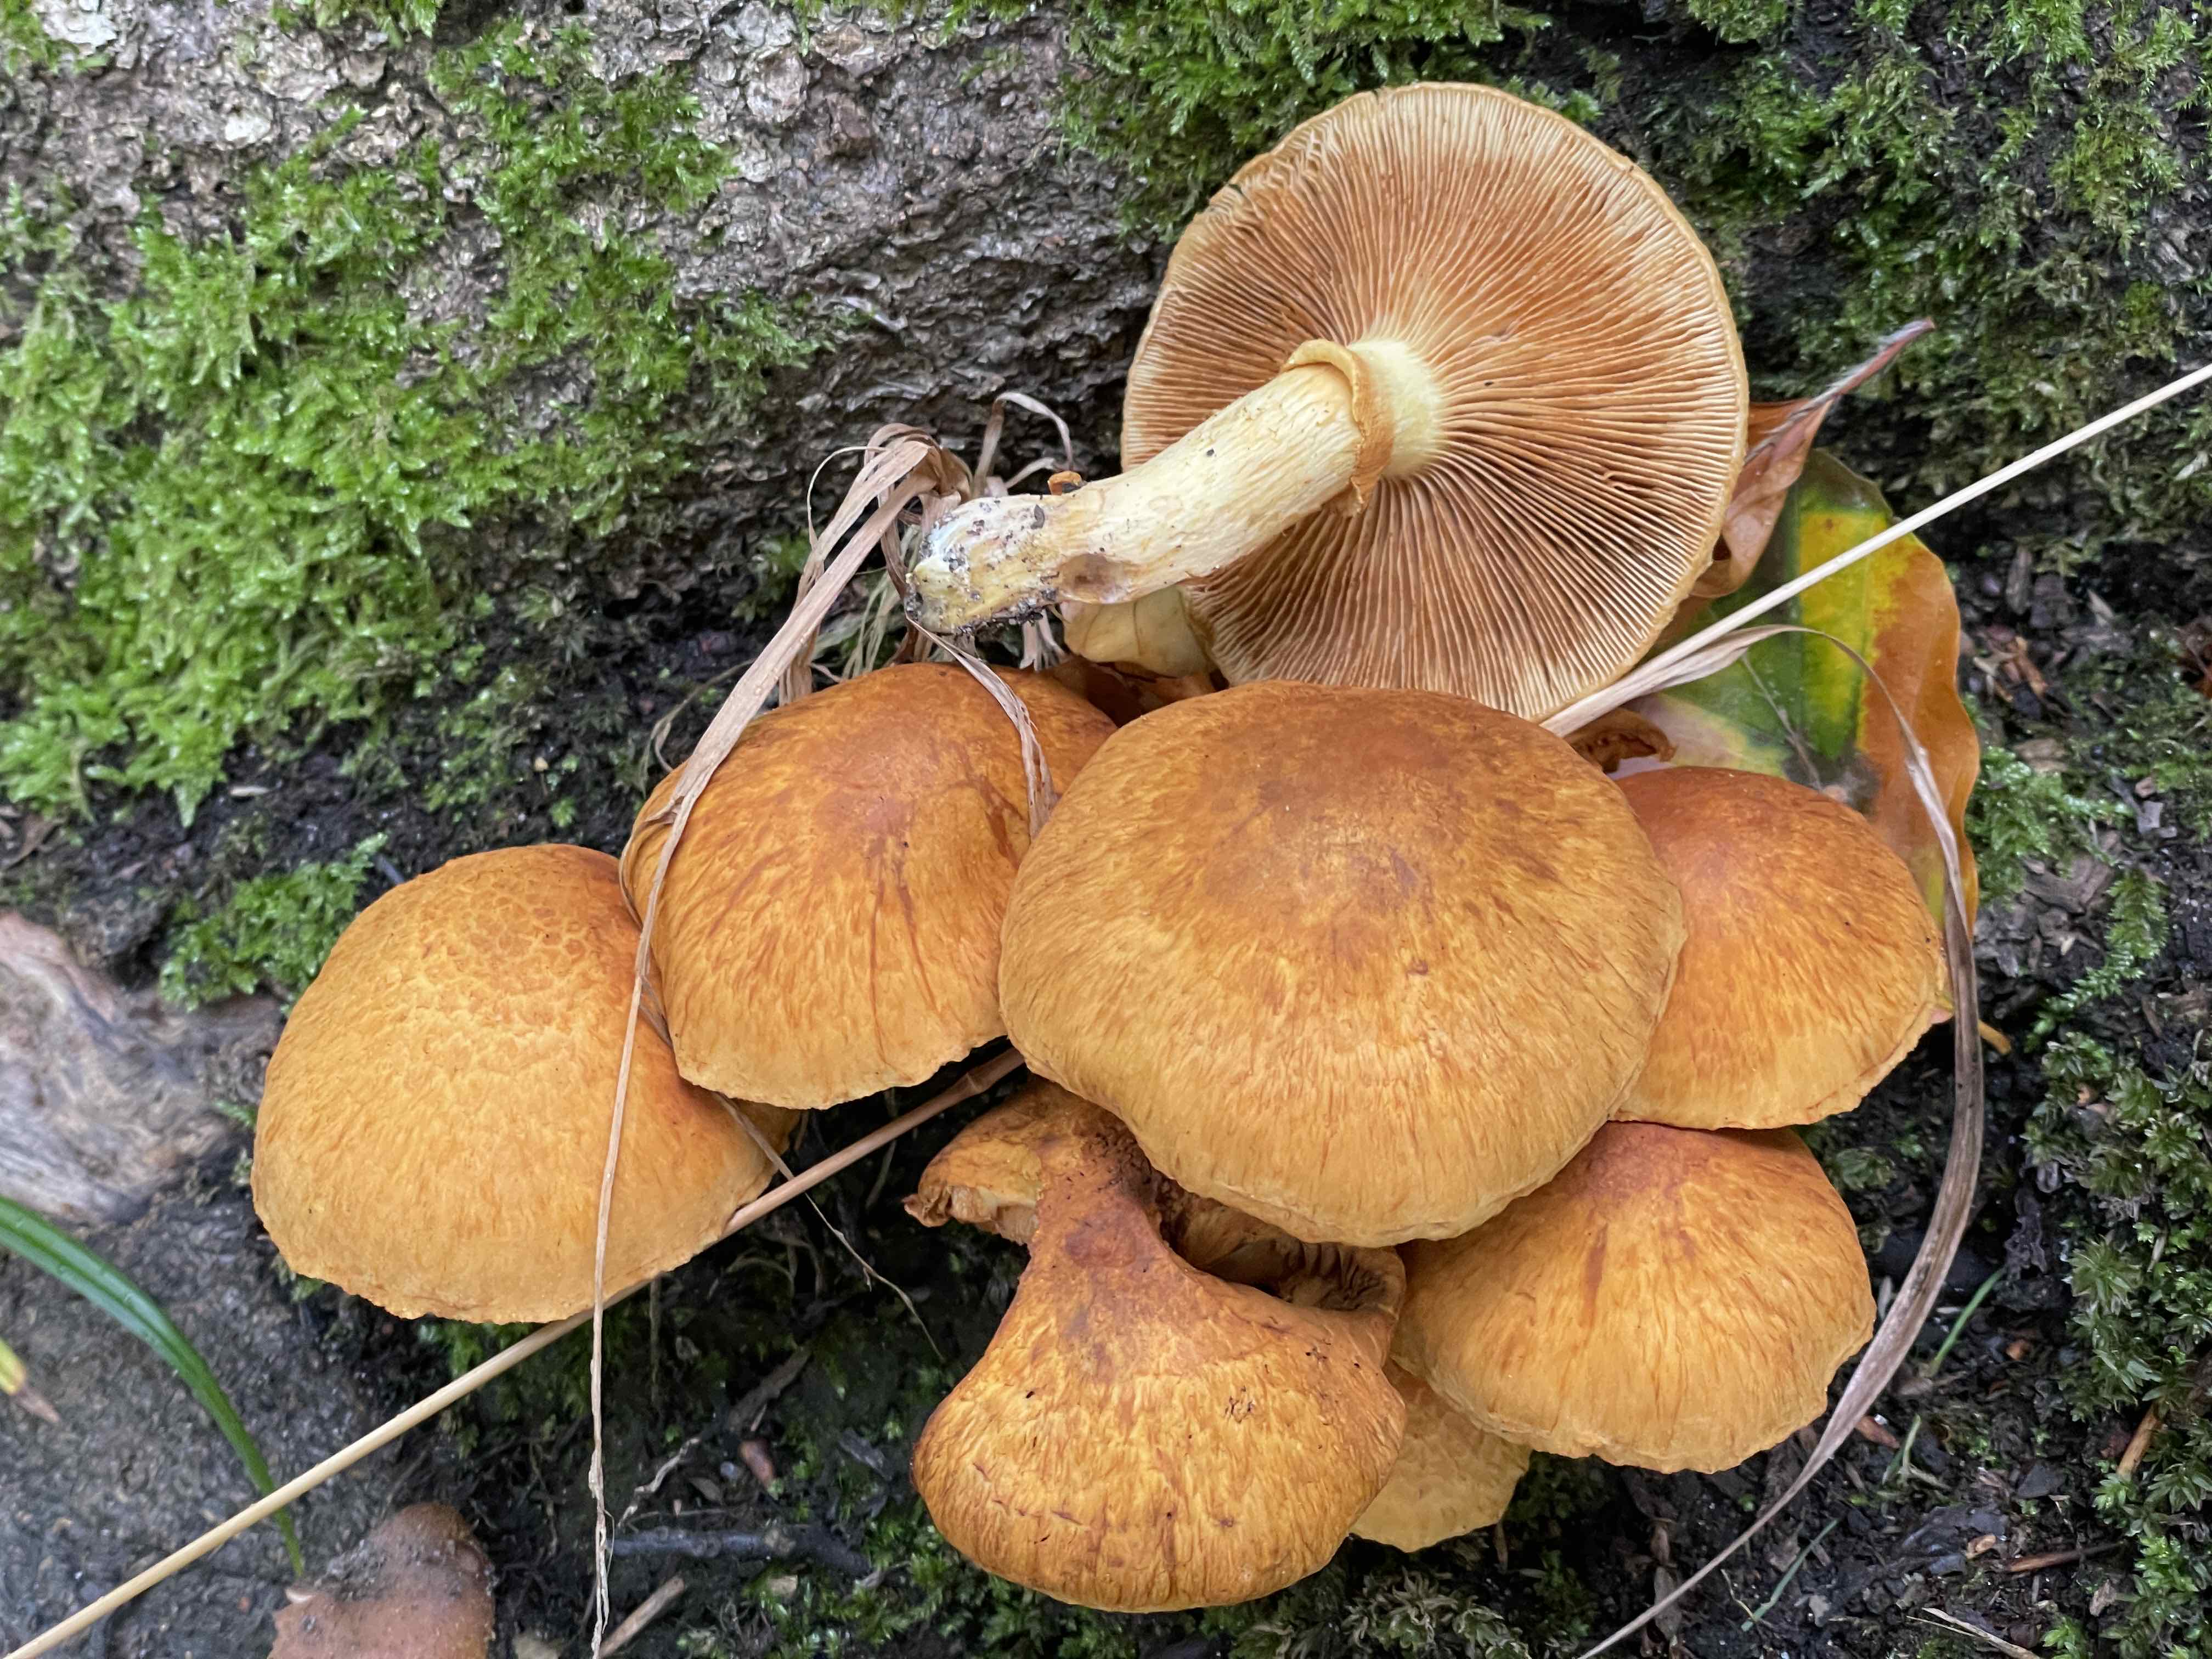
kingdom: Fungi
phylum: Basidiomycota
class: Agaricomycetes
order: Agaricales
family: Hymenogastraceae
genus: Gymnopilus
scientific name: Gymnopilus spectabilis
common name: fibret flammehat
